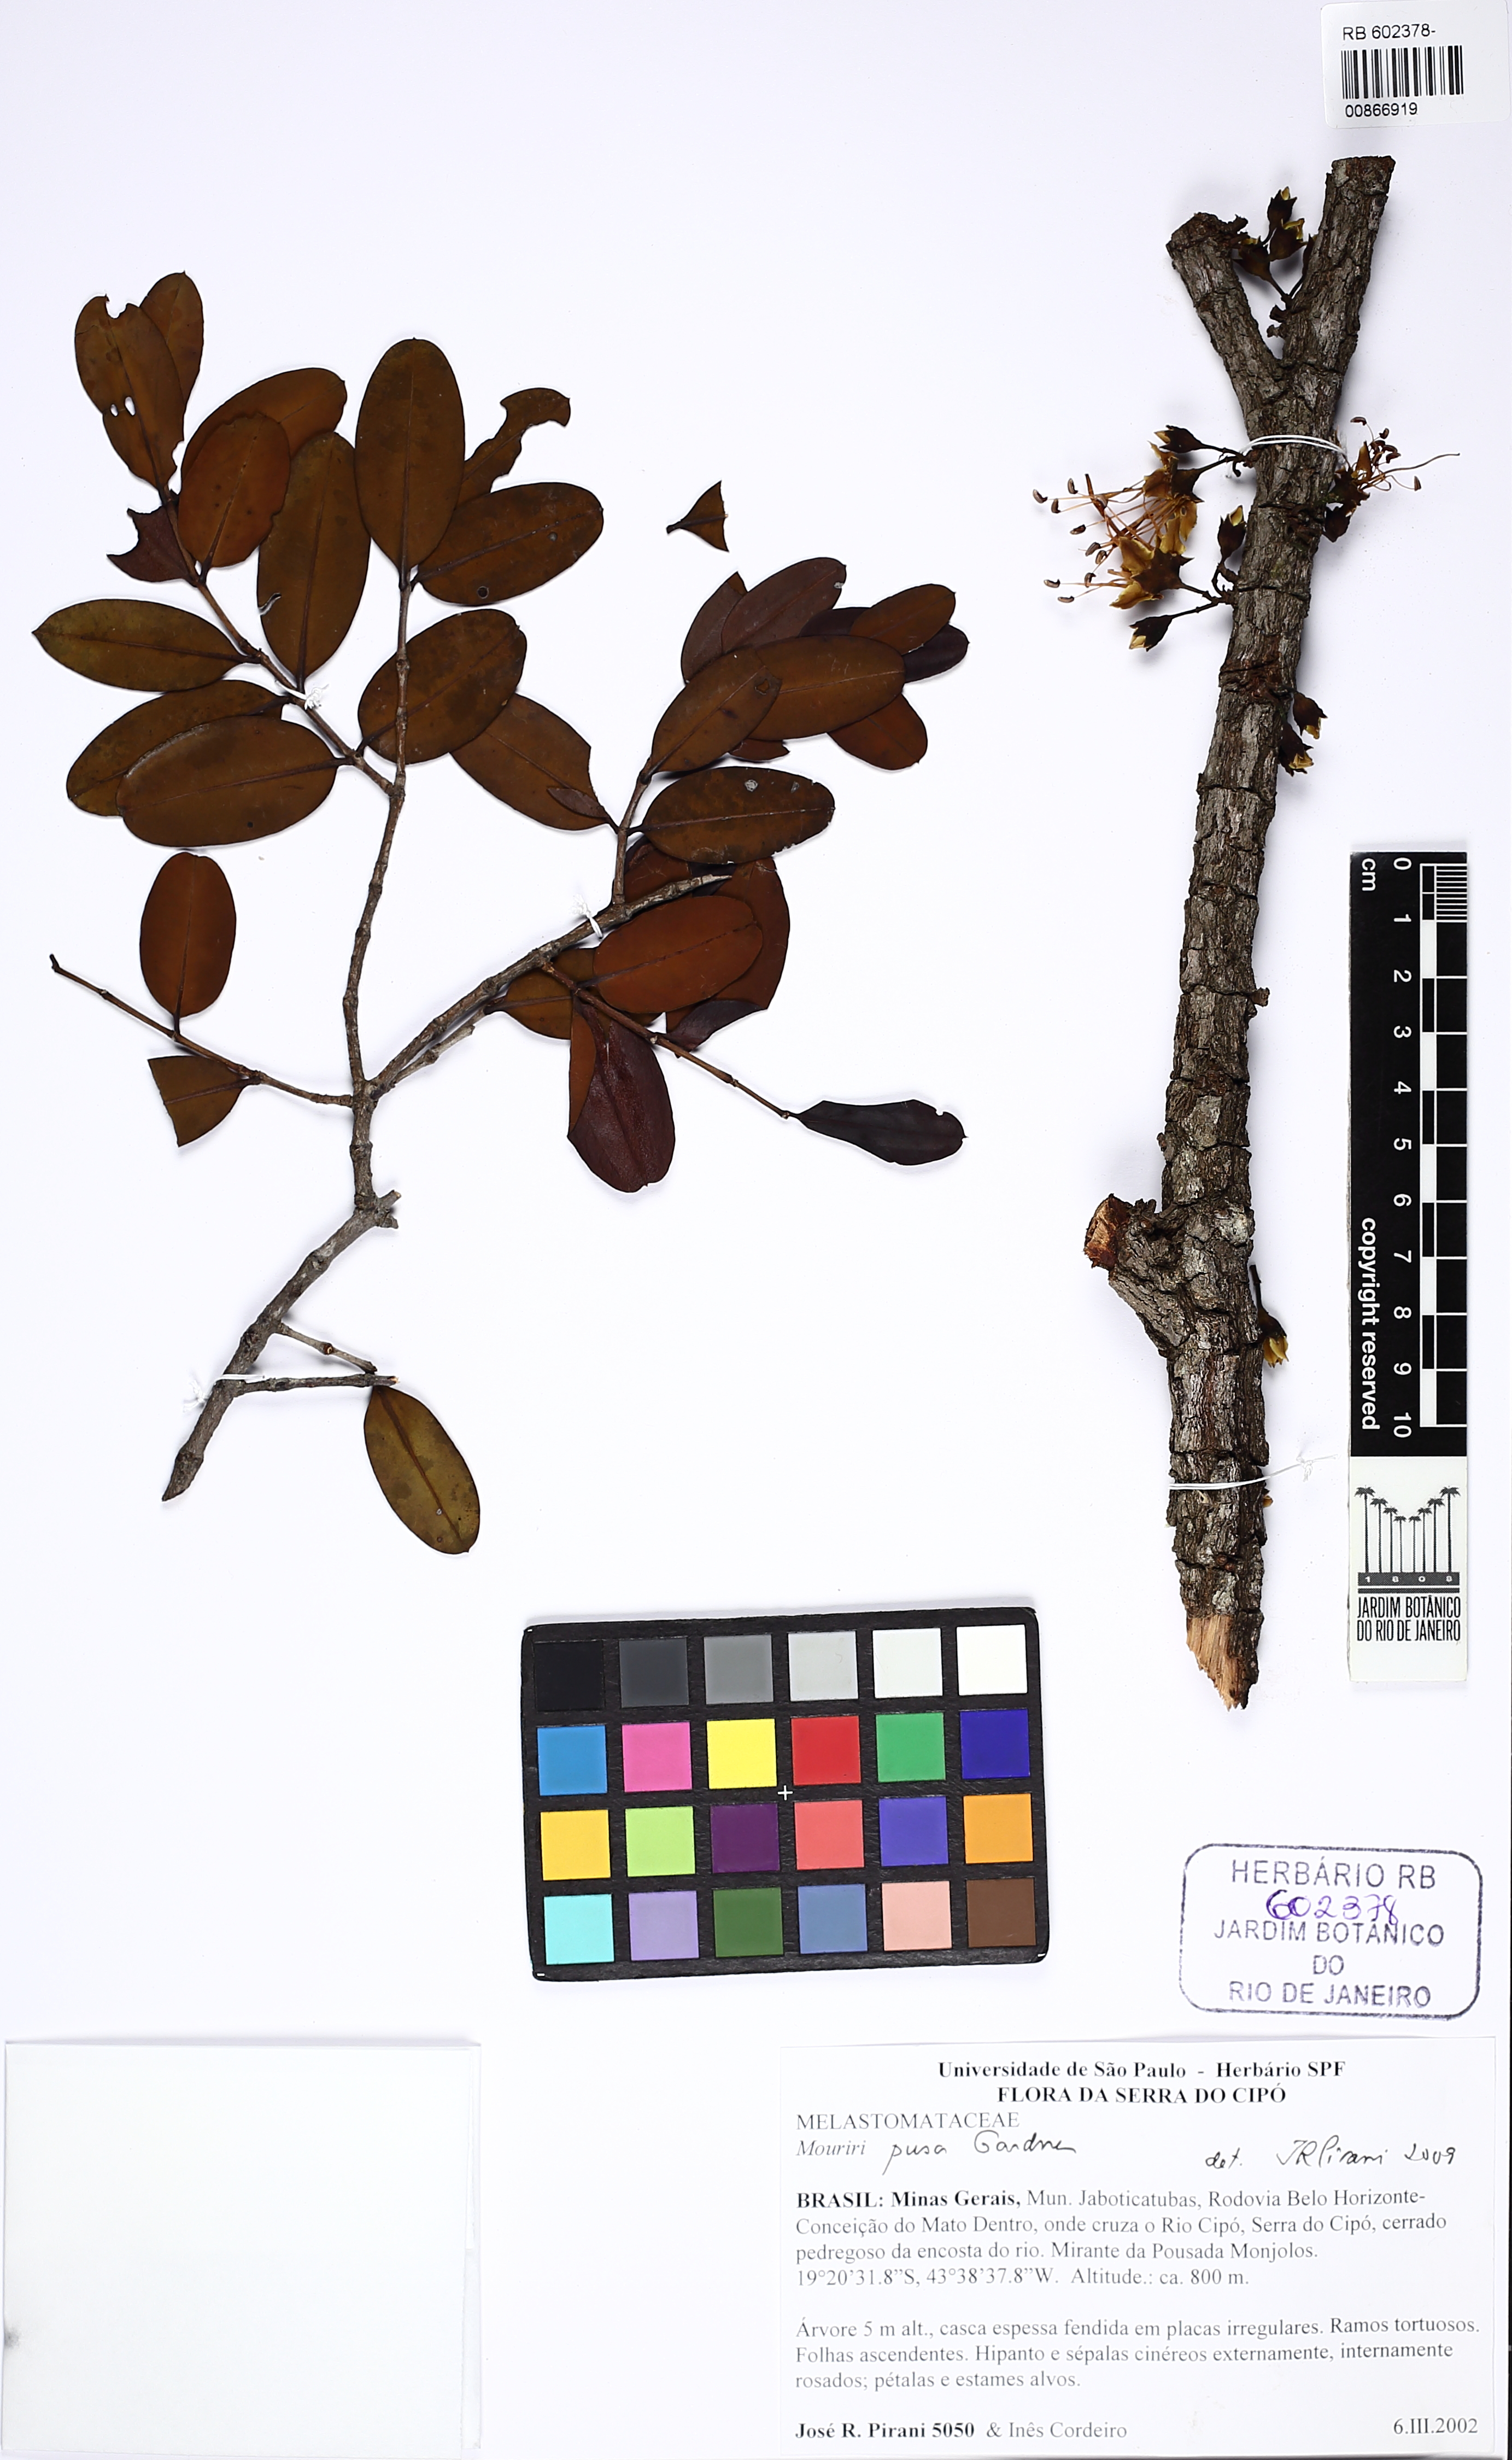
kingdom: Plantae
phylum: Tracheophyta
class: Magnoliopsida
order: Myrtales
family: Melastomataceae
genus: Mouriri
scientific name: Mouriri pusa
